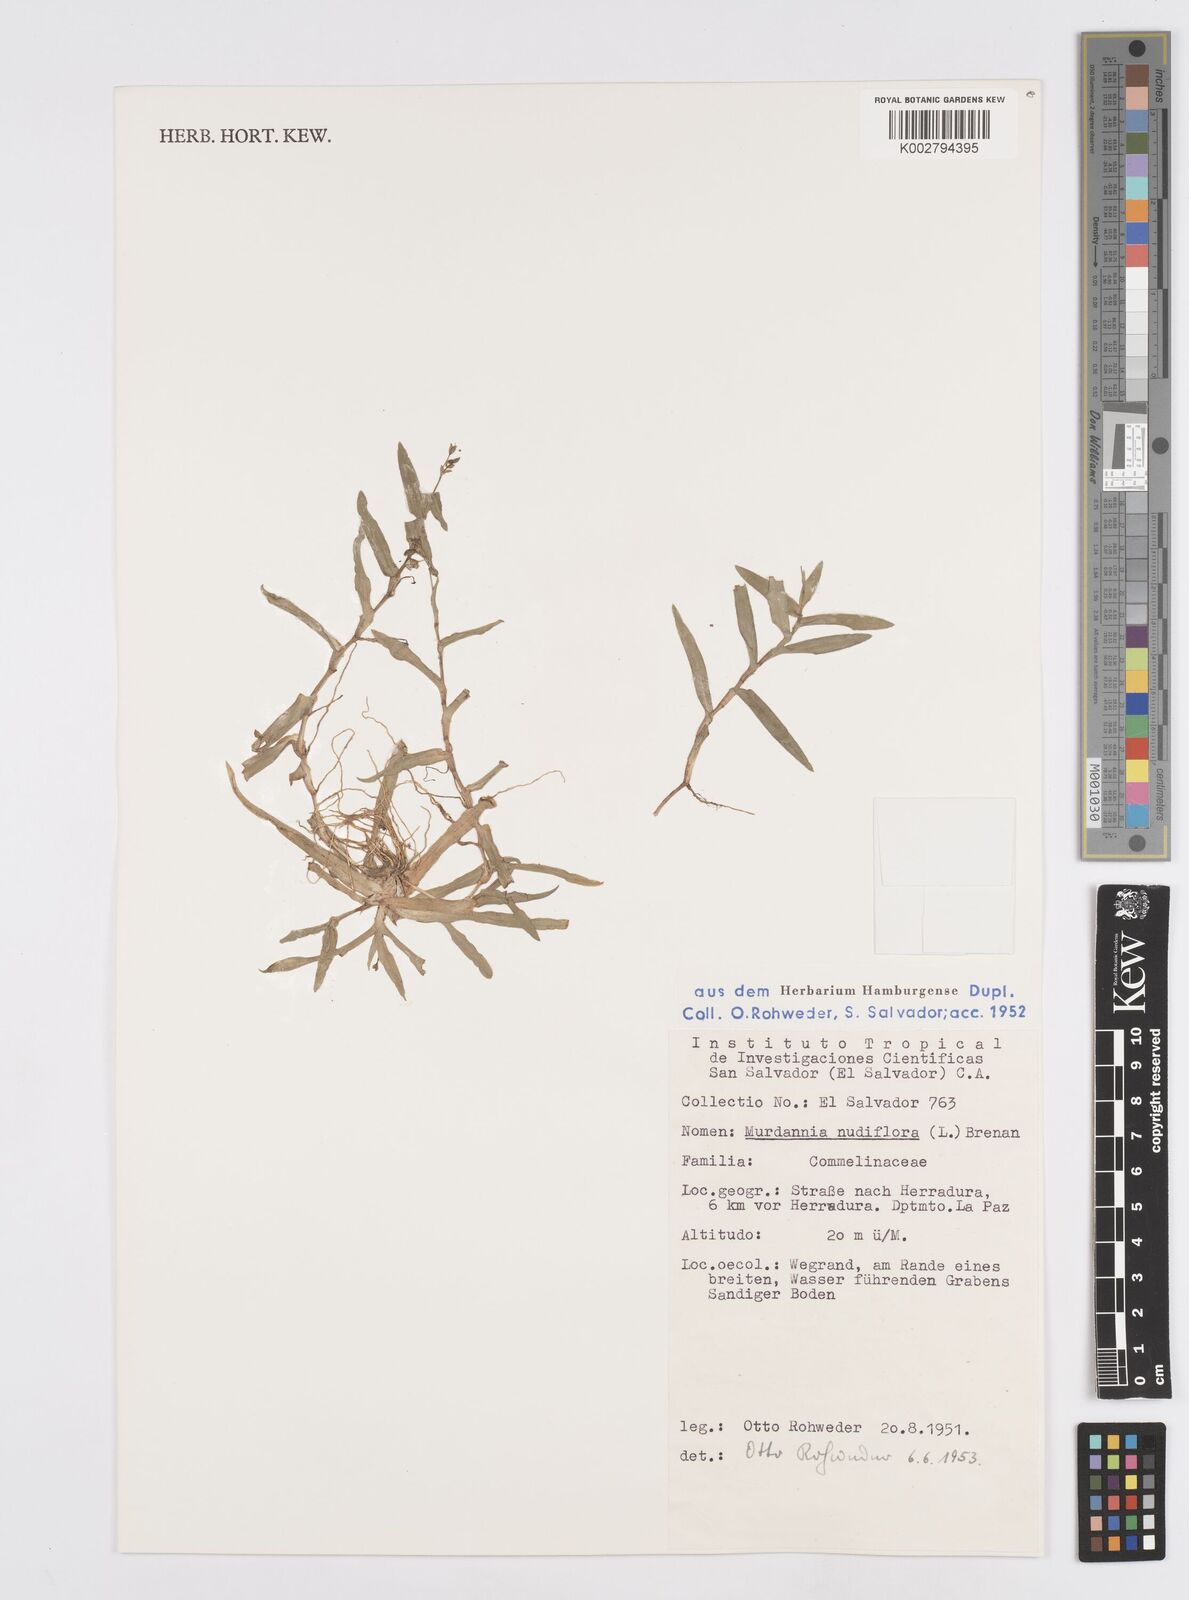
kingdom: Plantae
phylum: Tracheophyta
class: Liliopsida
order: Commelinales
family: Commelinaceae
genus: Murdannia
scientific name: Murdannia nudiflora
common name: Nakedstem dewflower
